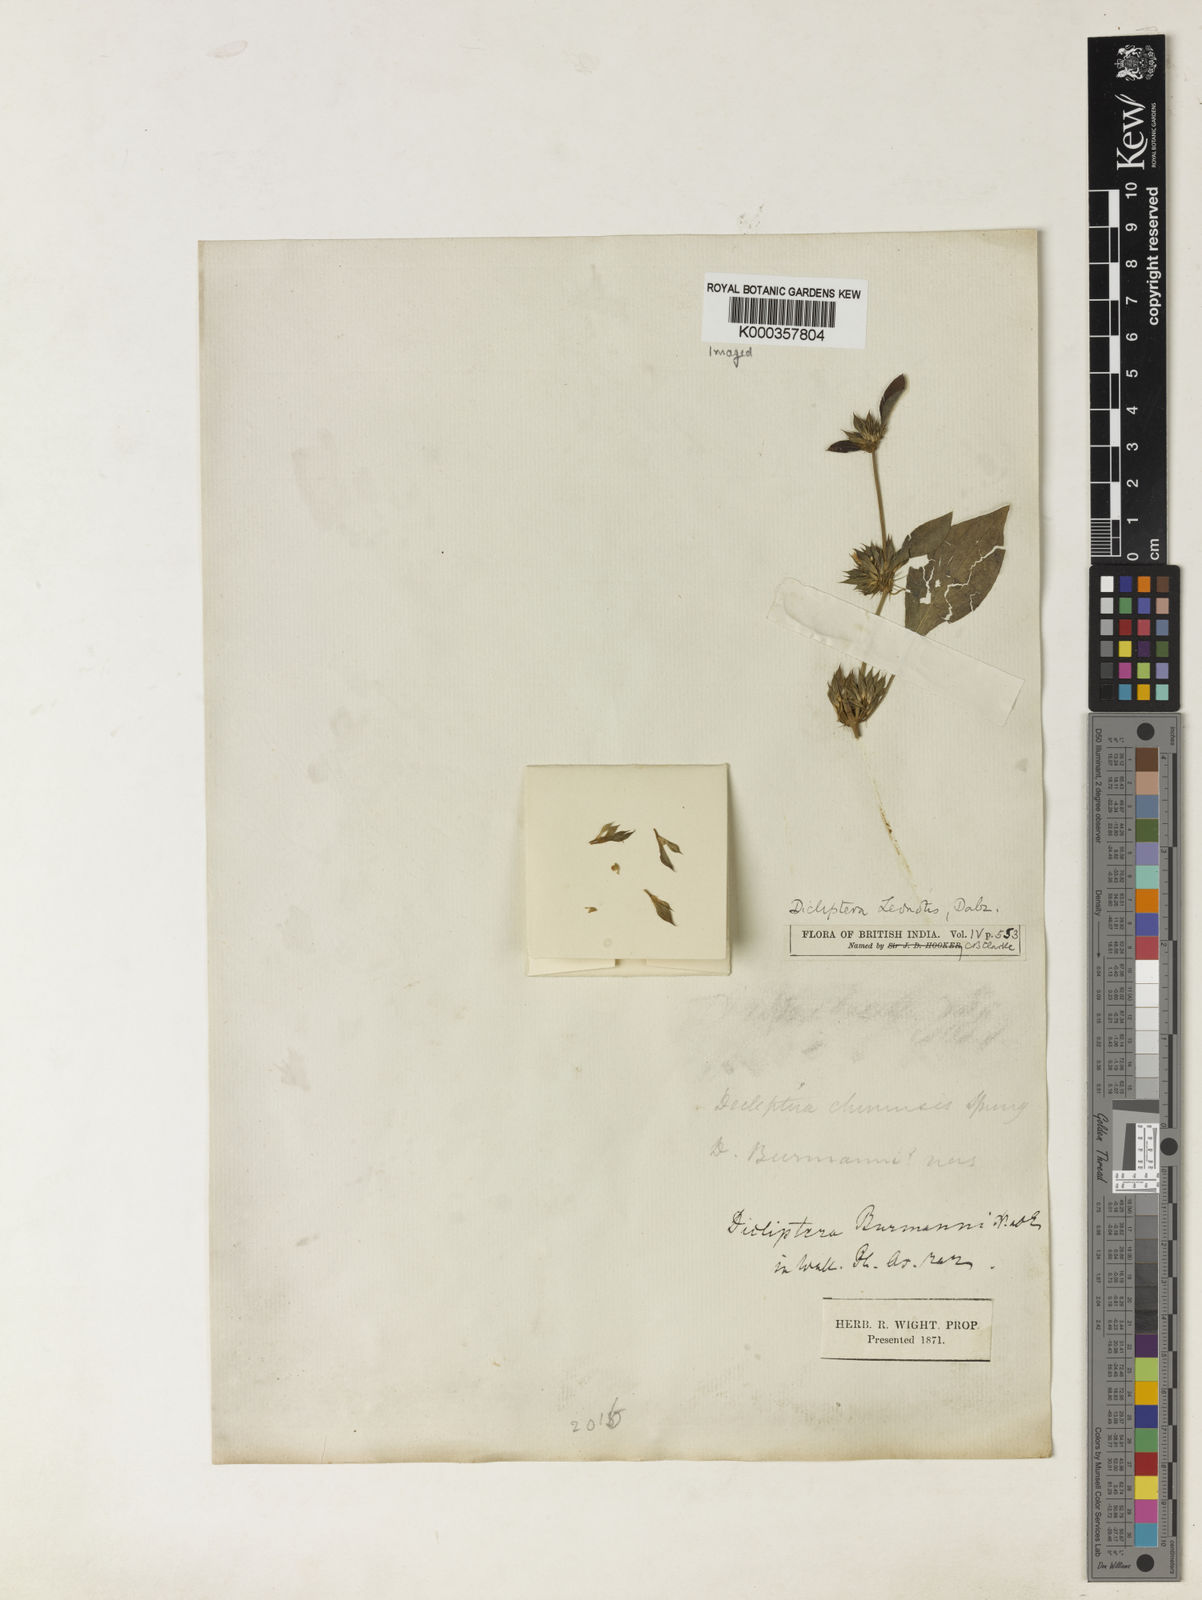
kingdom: Plantae
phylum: Tracheophyta
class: Magnoliopsida
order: Lamiales
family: Acanthaceae
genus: Dicliptera
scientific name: Dicliptera leonotis
